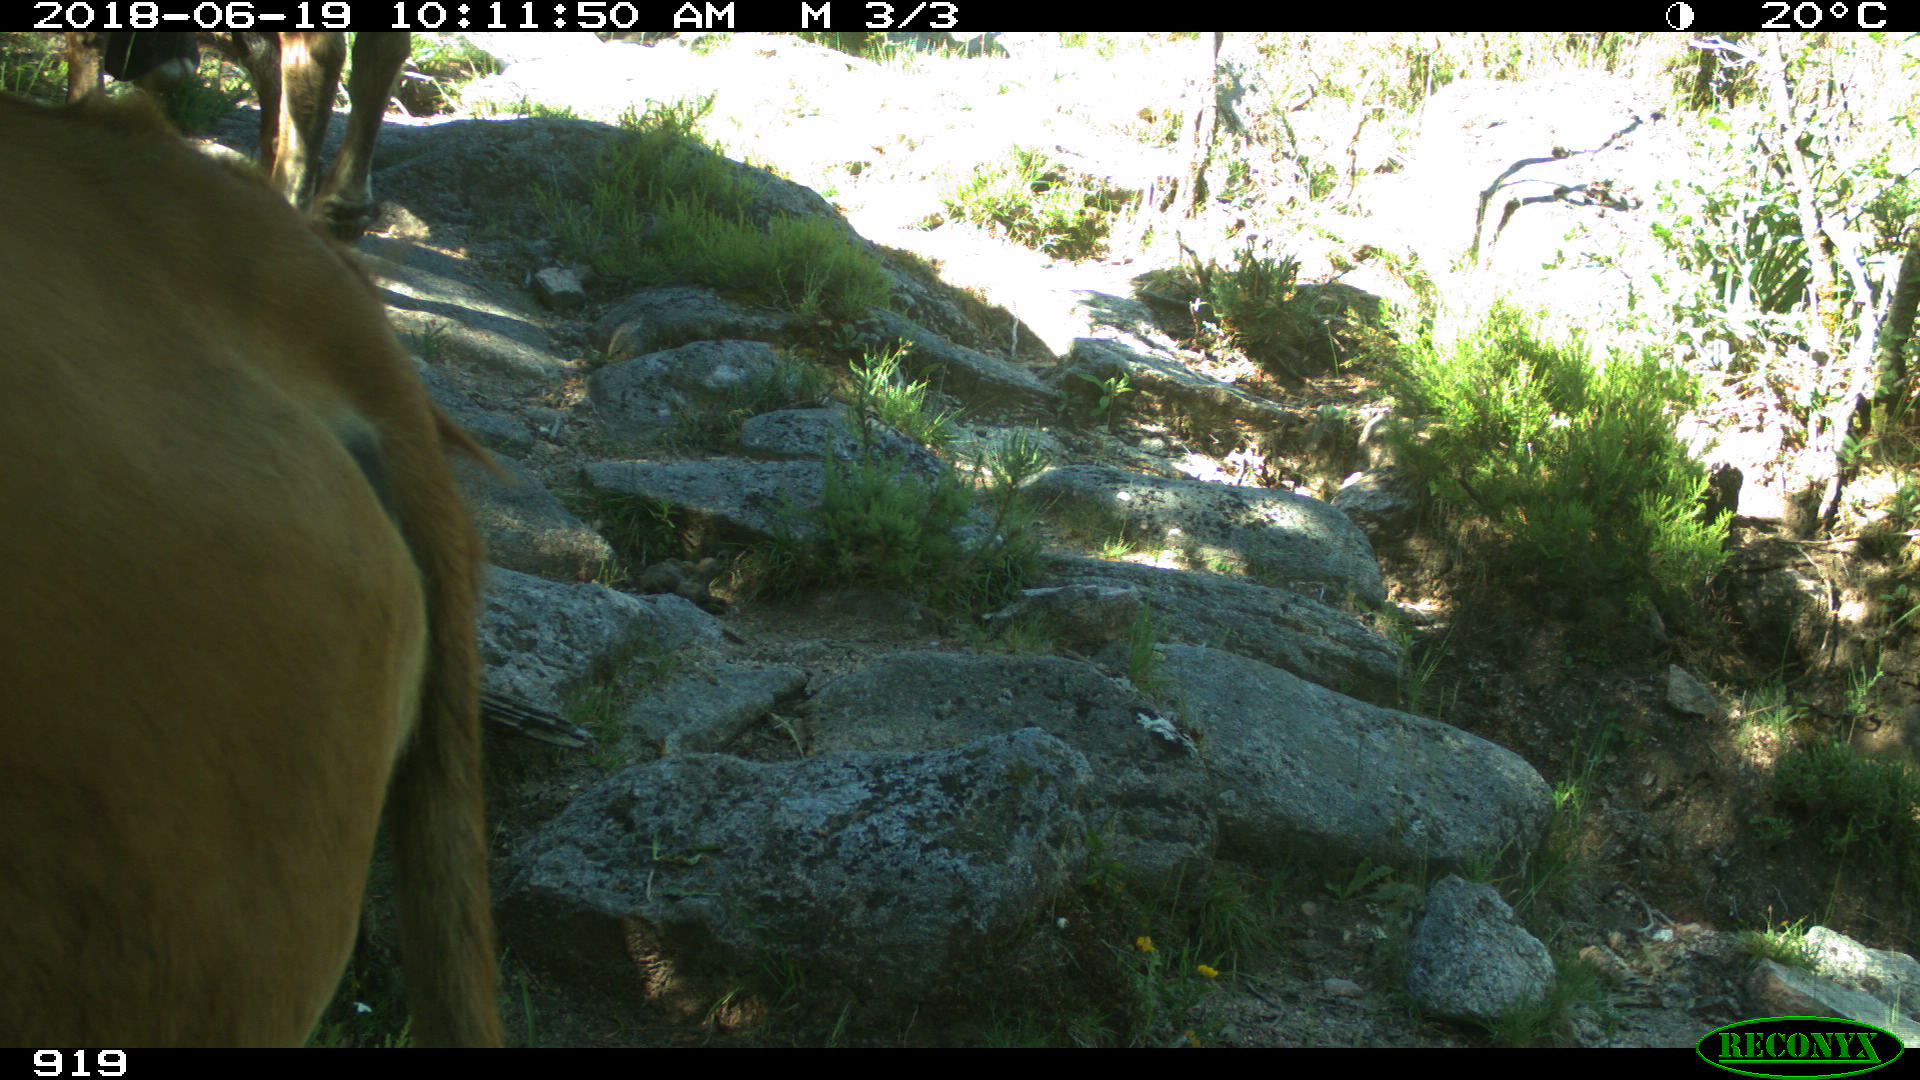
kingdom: Animalia
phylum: Chordata
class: Mammalia
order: Artiodactyla
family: Bovidae
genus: Bos
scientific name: Bos taurus
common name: Domesticated cattle
